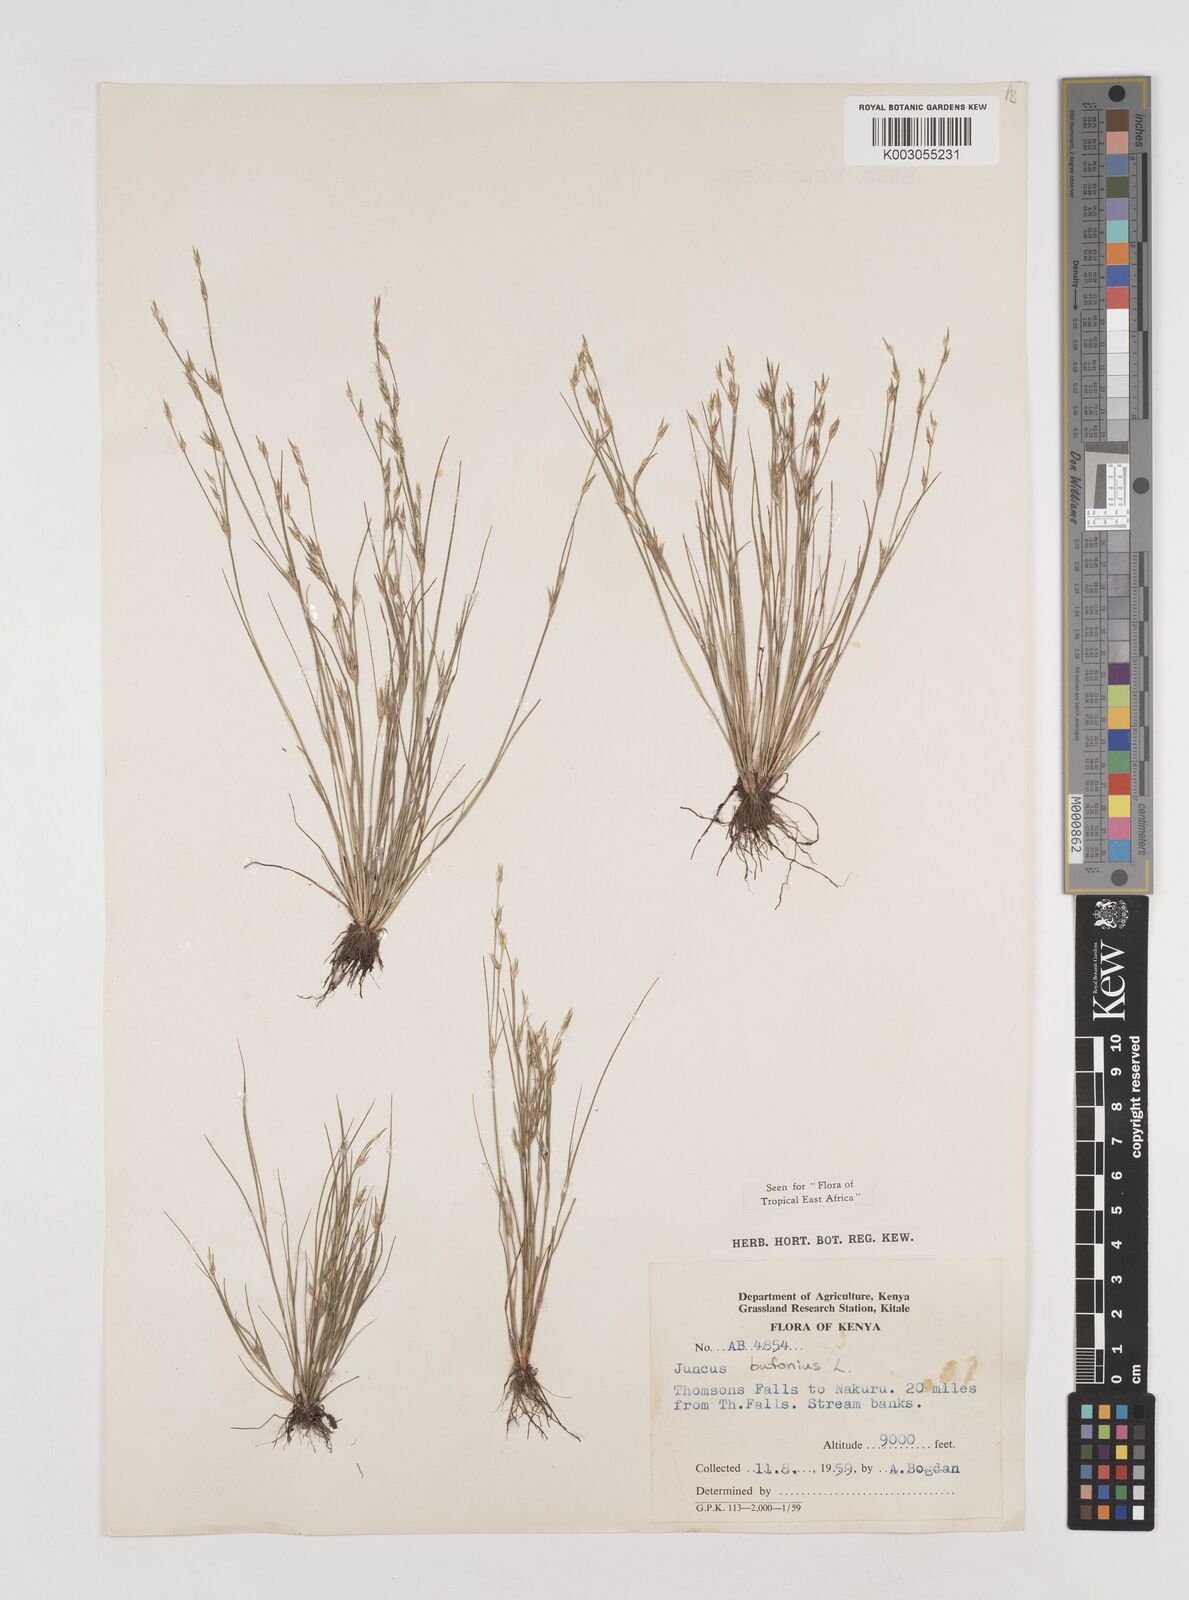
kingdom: Plantae
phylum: Tracheophyta
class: Liliopsida
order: Poales
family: Juncaceae
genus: Juncus
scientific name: Juncus bufonius
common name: Toad rush
